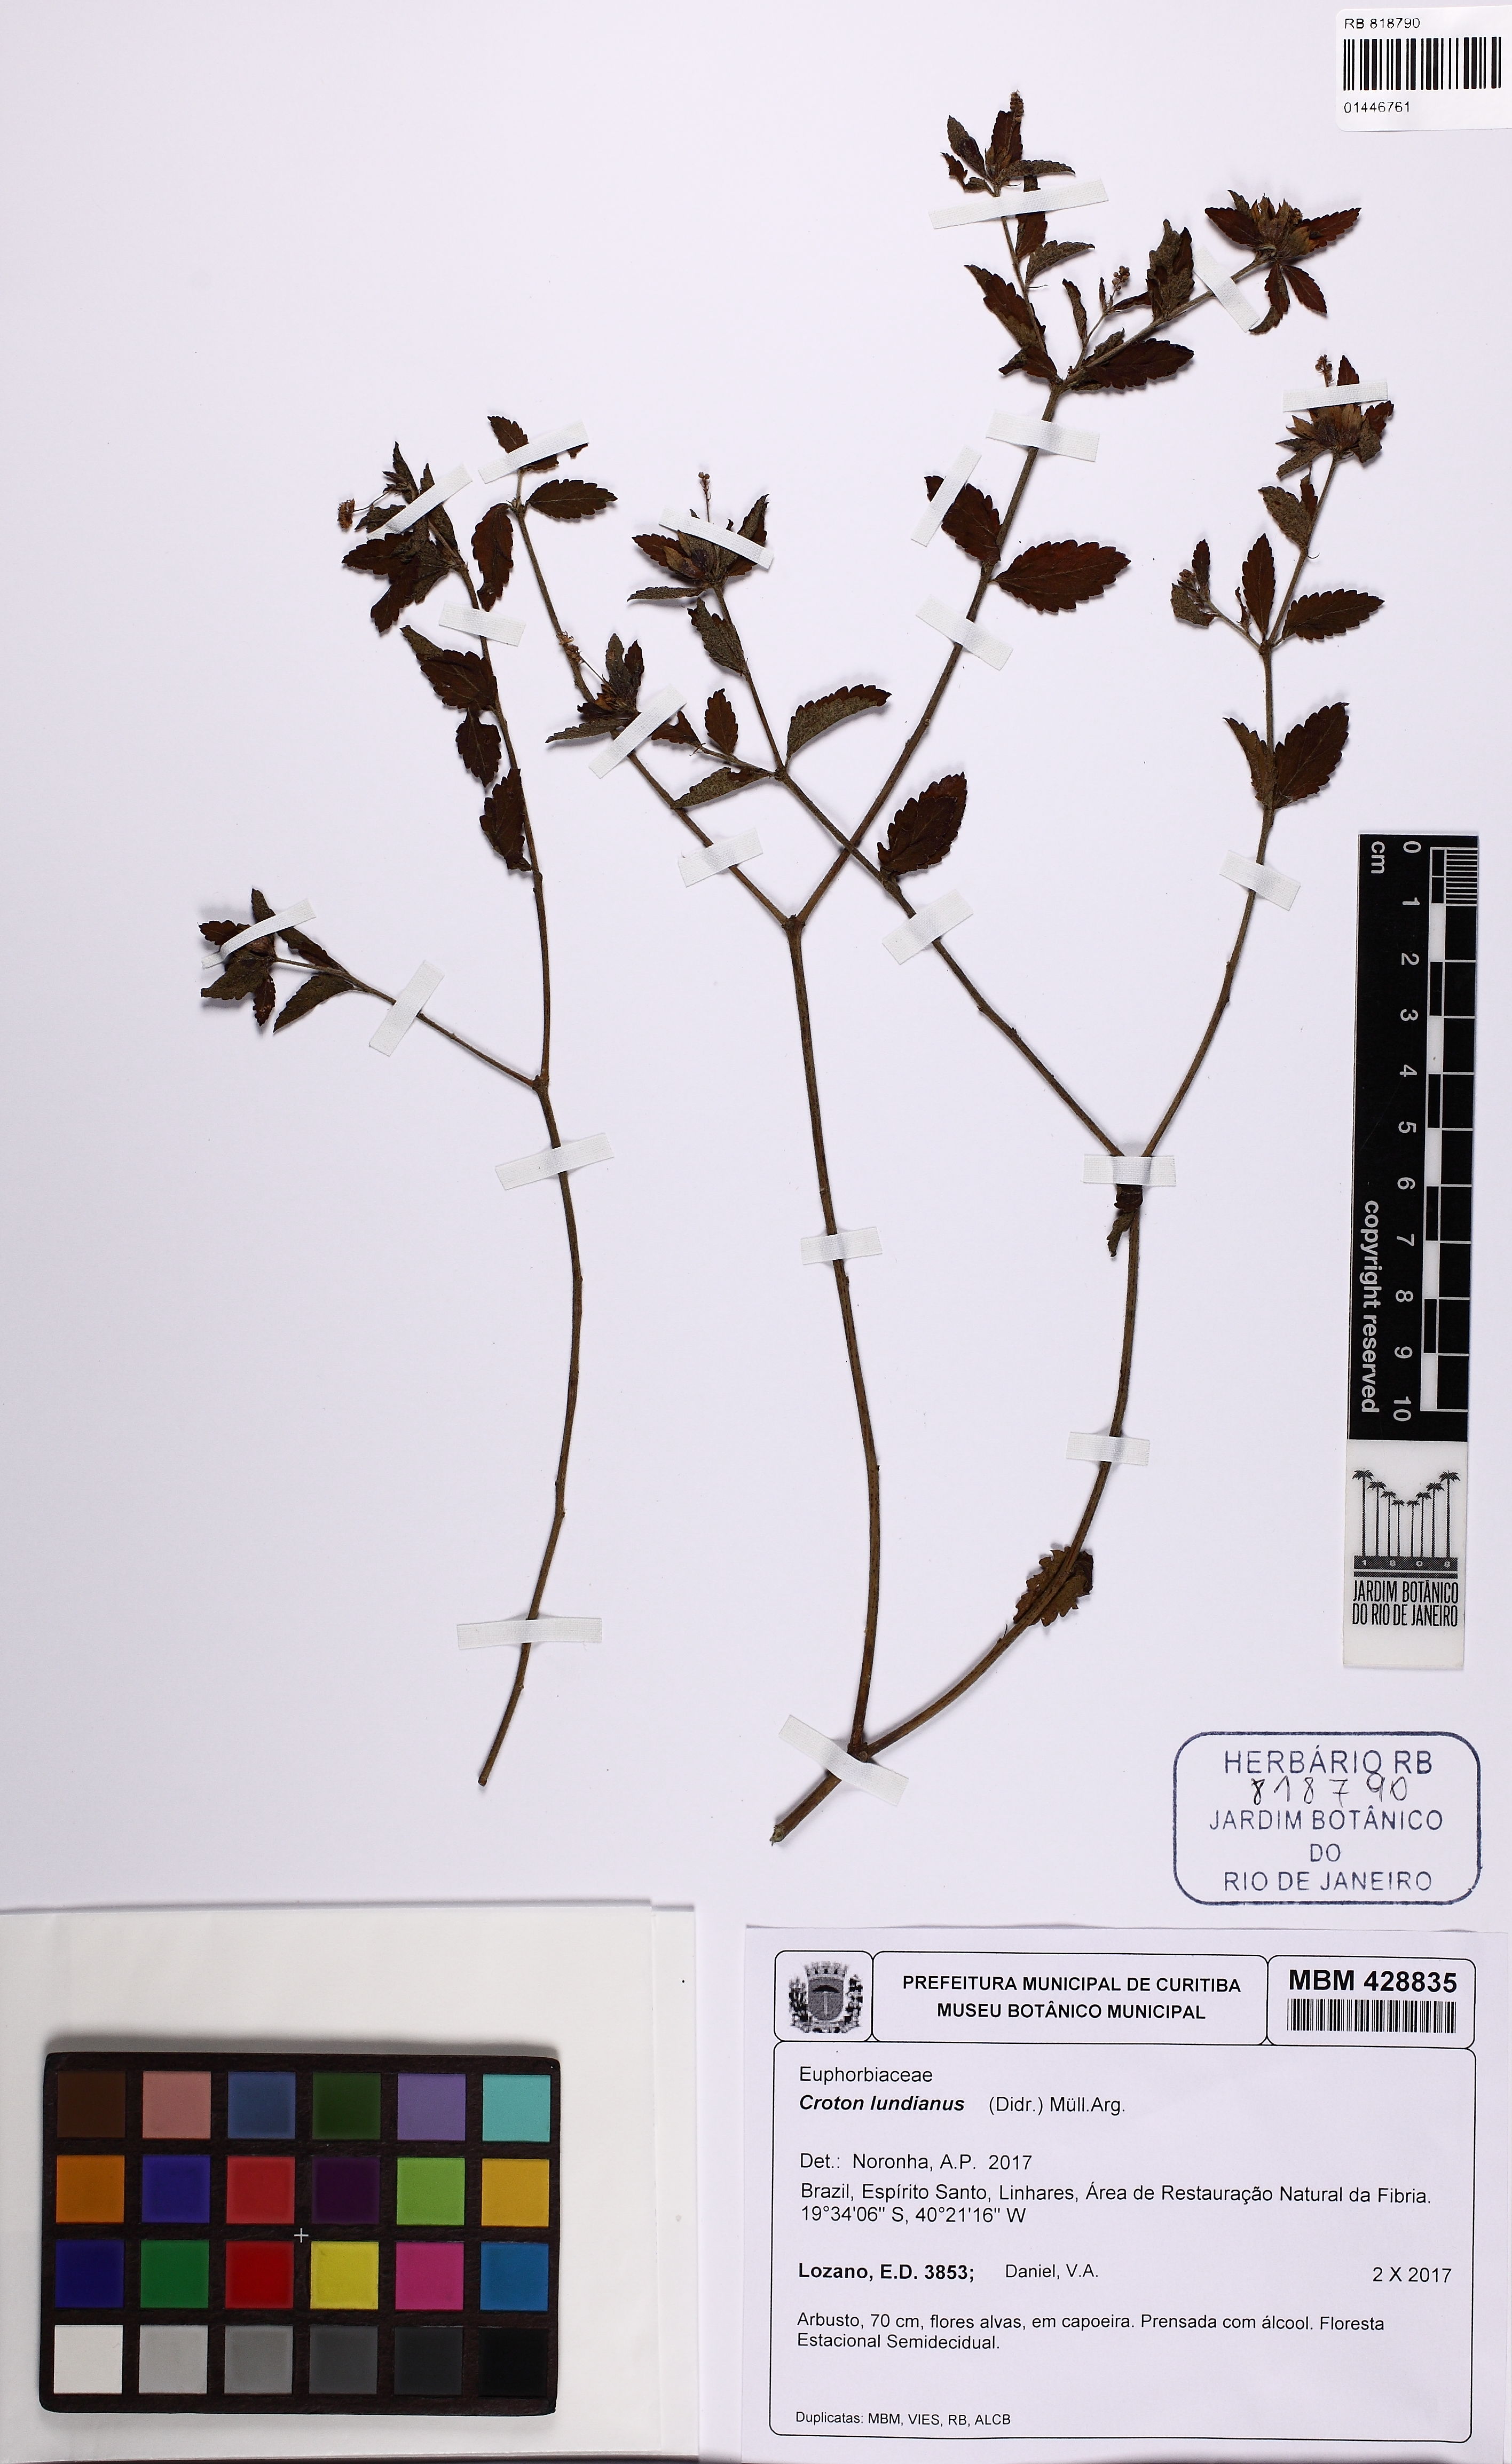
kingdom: Plantae
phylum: Tracheophyta
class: Magnoliopsida
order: Malpighiales
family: Euphorbiaceae
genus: Croton
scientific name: Croton lundianus
